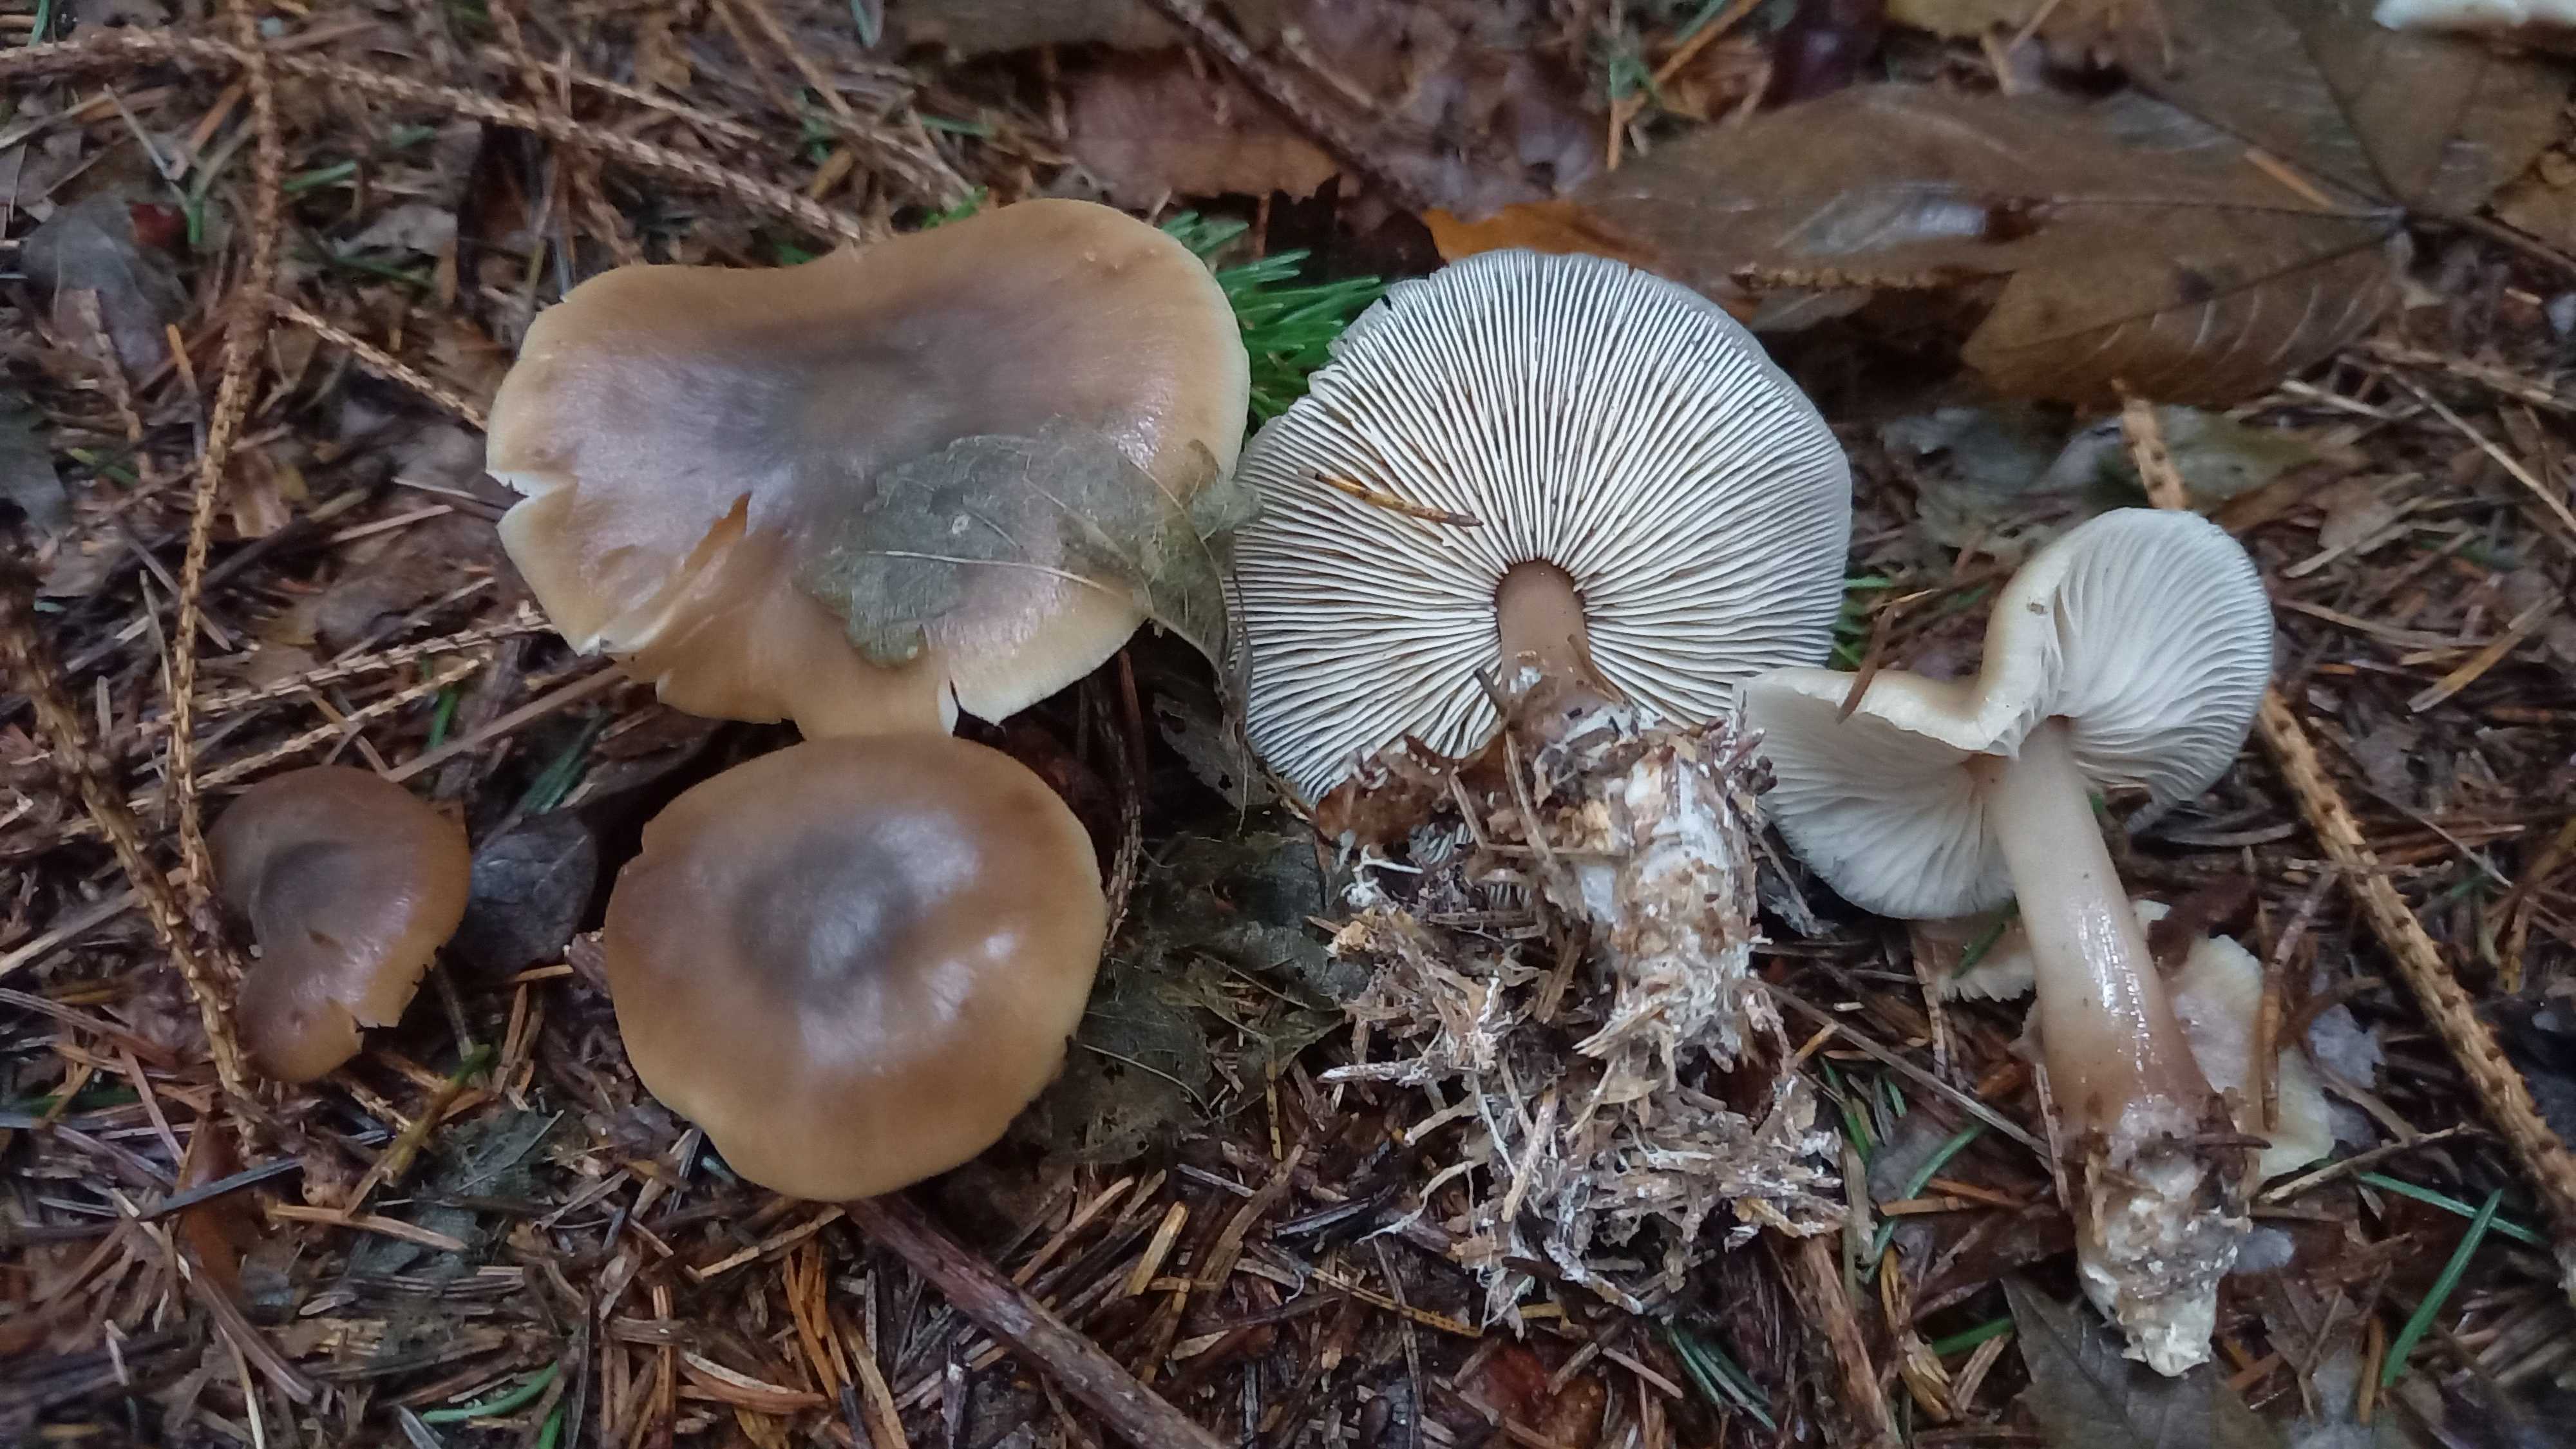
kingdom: Fungi
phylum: Basidiomycota
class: Agaricomycetes
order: Agaricales
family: Omphalotaceae
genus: Rhodocollybia
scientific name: Rhodocollybia
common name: fladhat
